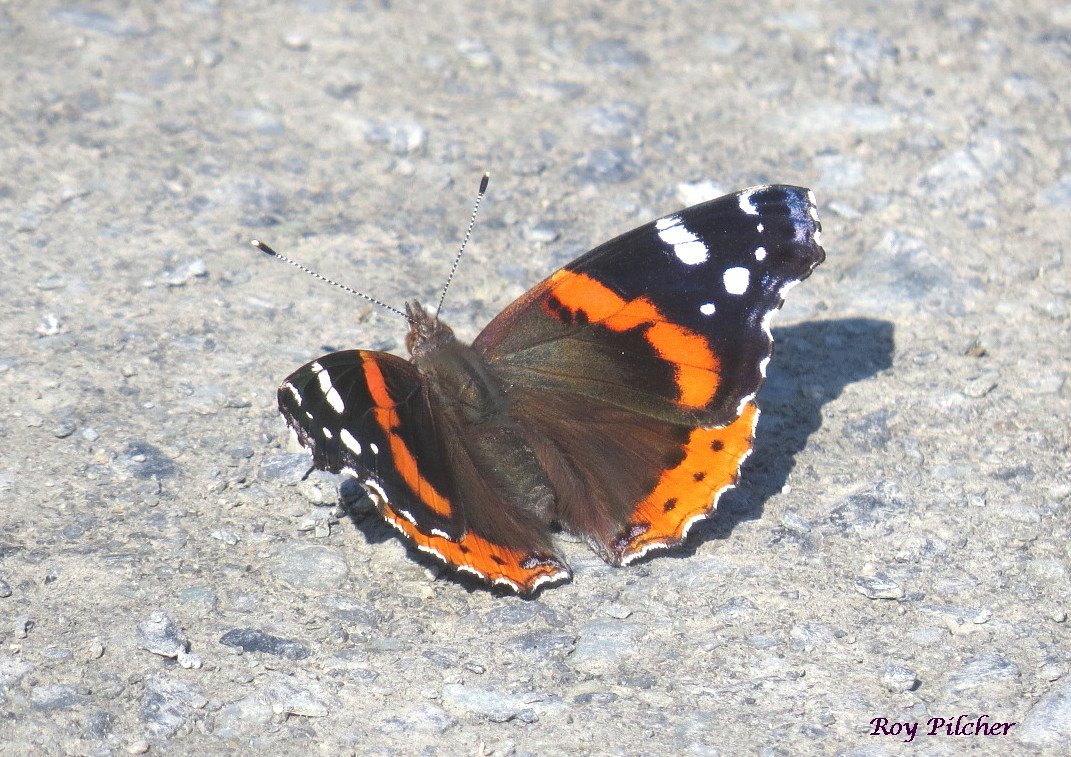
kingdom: Animalia
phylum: Arthropoda
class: Insecta
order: Lepidoptera
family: Nymphalidae
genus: Vanessa
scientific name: Vanessa atalanta
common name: Red Admiral
